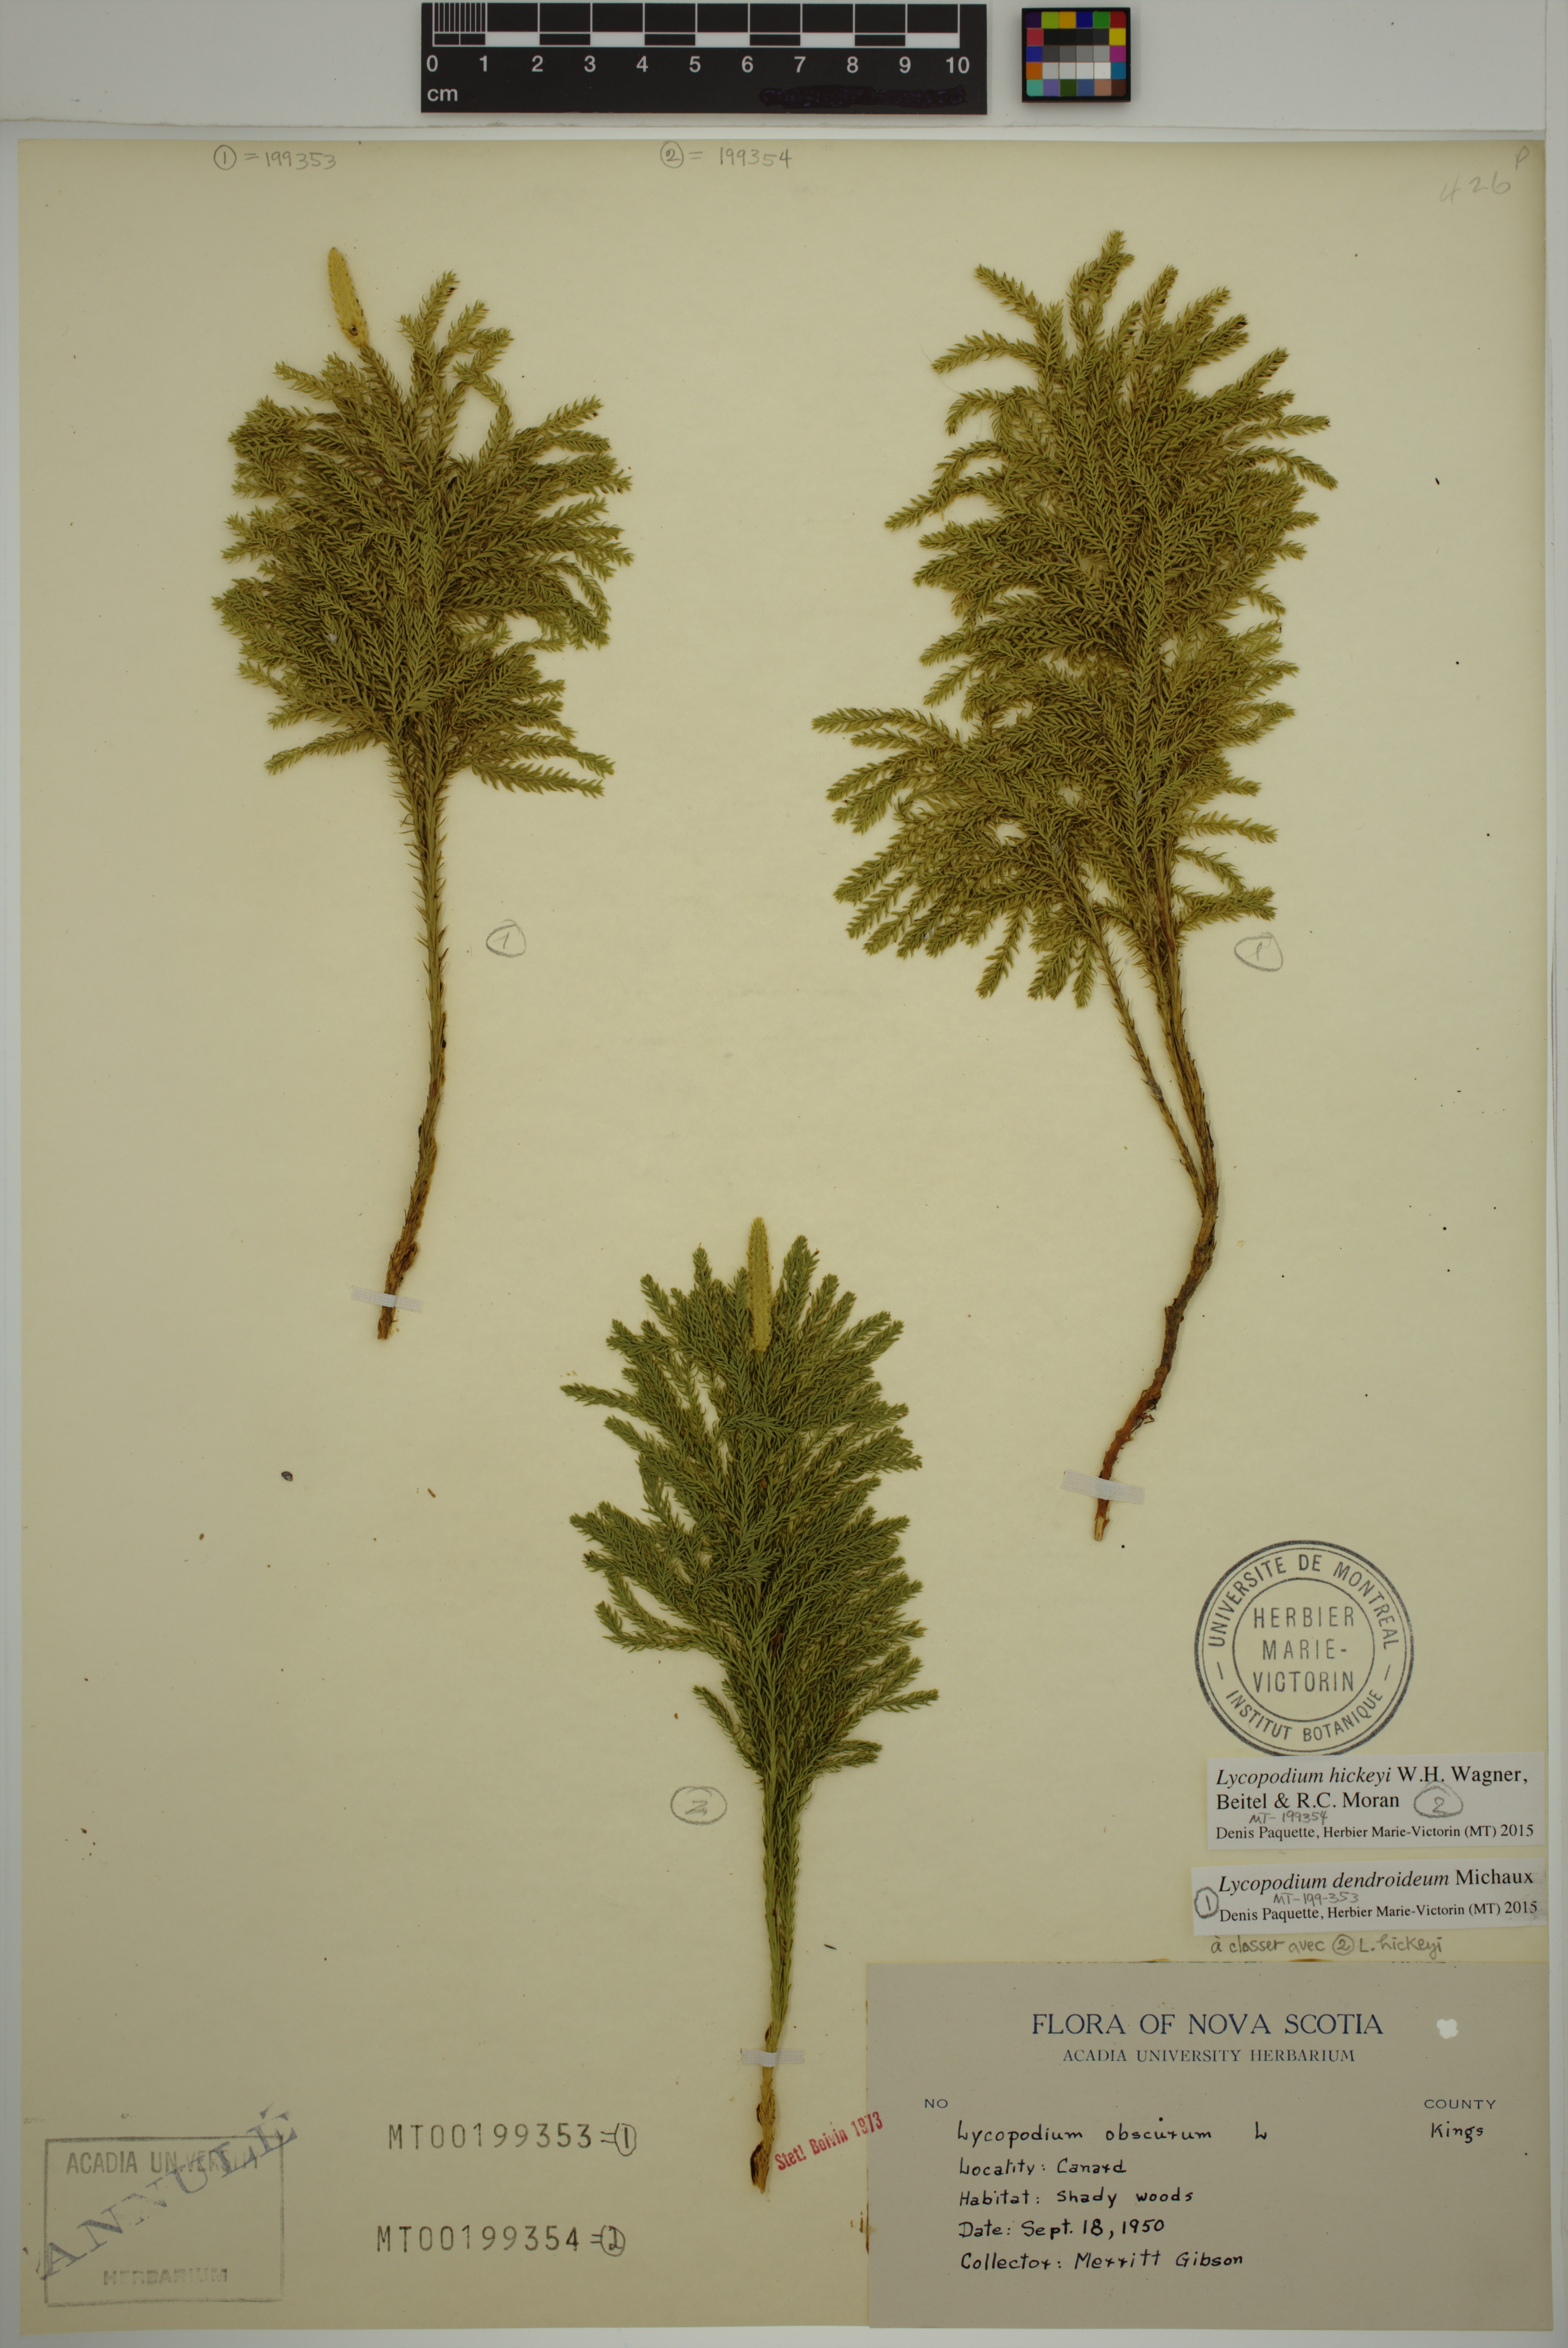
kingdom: Plantae
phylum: Tracheophyta
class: Lycopodiopsida
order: Lycopodiales
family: Lycopodiaceae
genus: Dendrolycopodium
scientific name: Dendrolycopodium hickeyi
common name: Hickey's clubmoss
